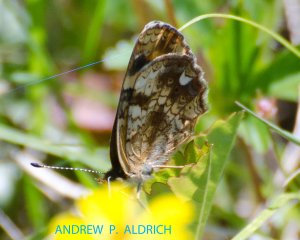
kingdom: Animalia
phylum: Arthropoda
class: Insecta
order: Lepidoptera
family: Nymphalidae
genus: Phyciodes
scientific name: Phyciodes tharos
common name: Pearl Crescent
